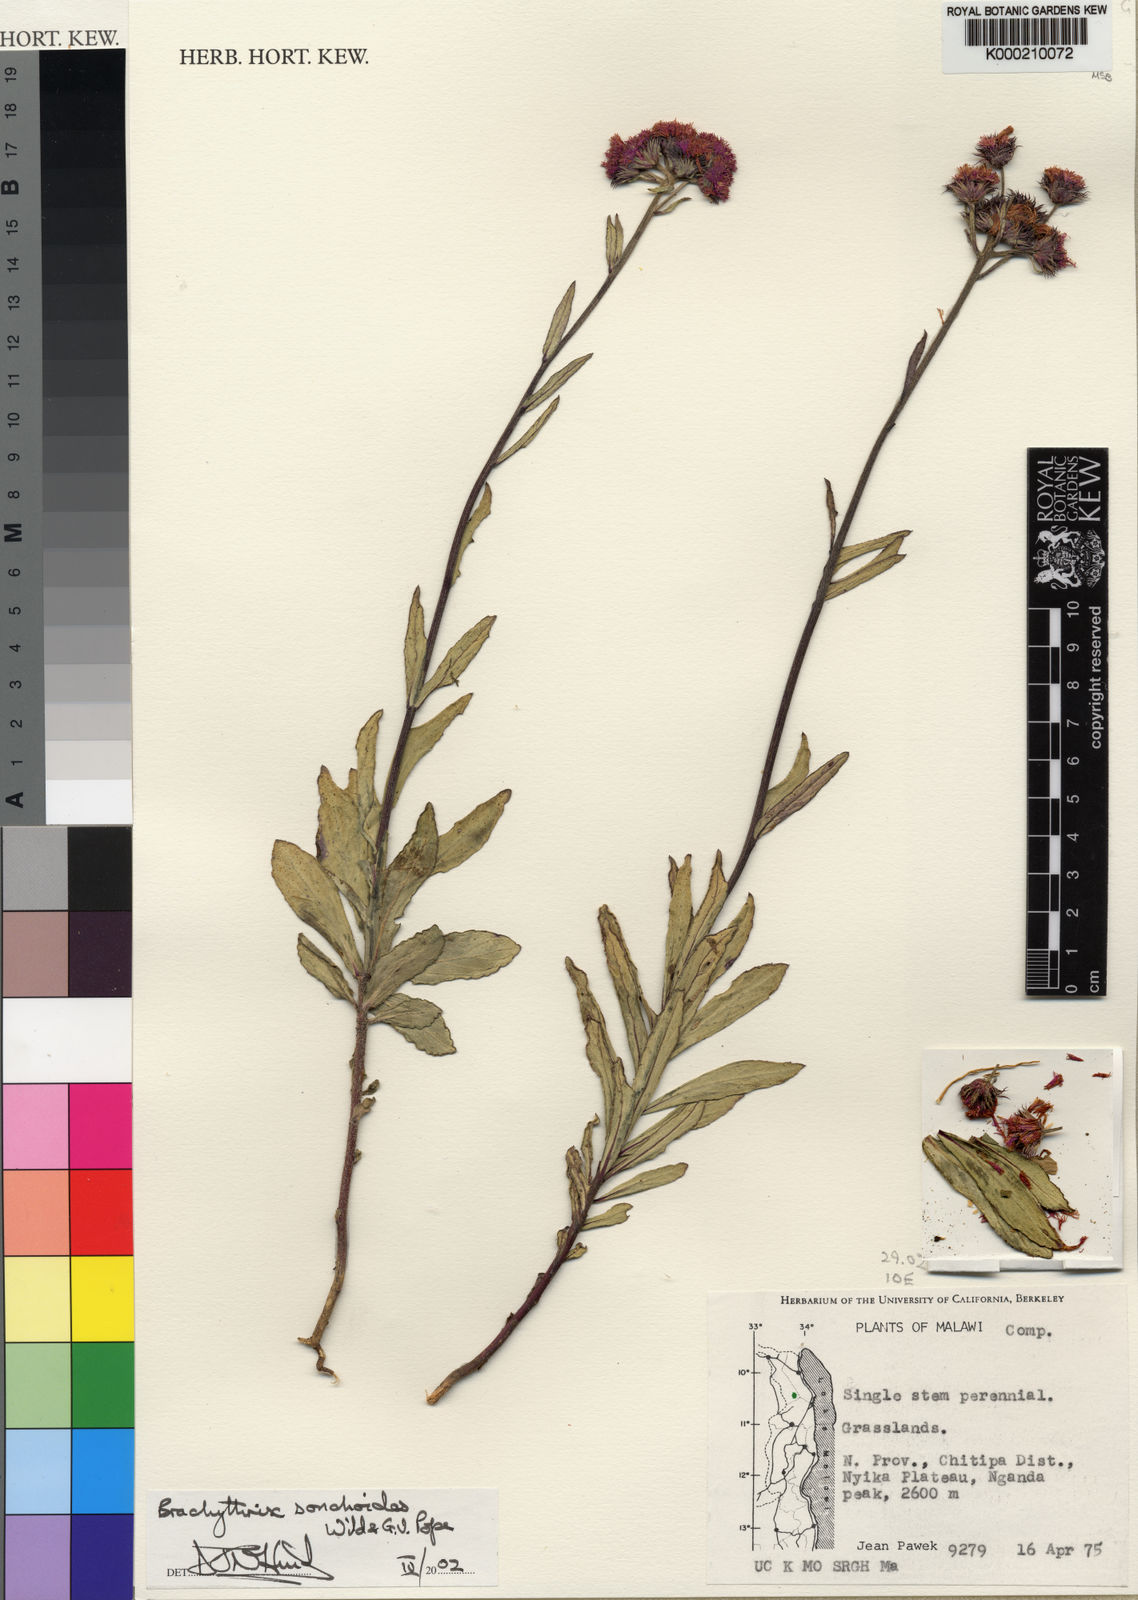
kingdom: Plantae
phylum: Tracheophyta
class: Magnoliopsida
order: Asterales
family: Asteraceae
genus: Brachythrix
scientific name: Brachythrix sonchoides
